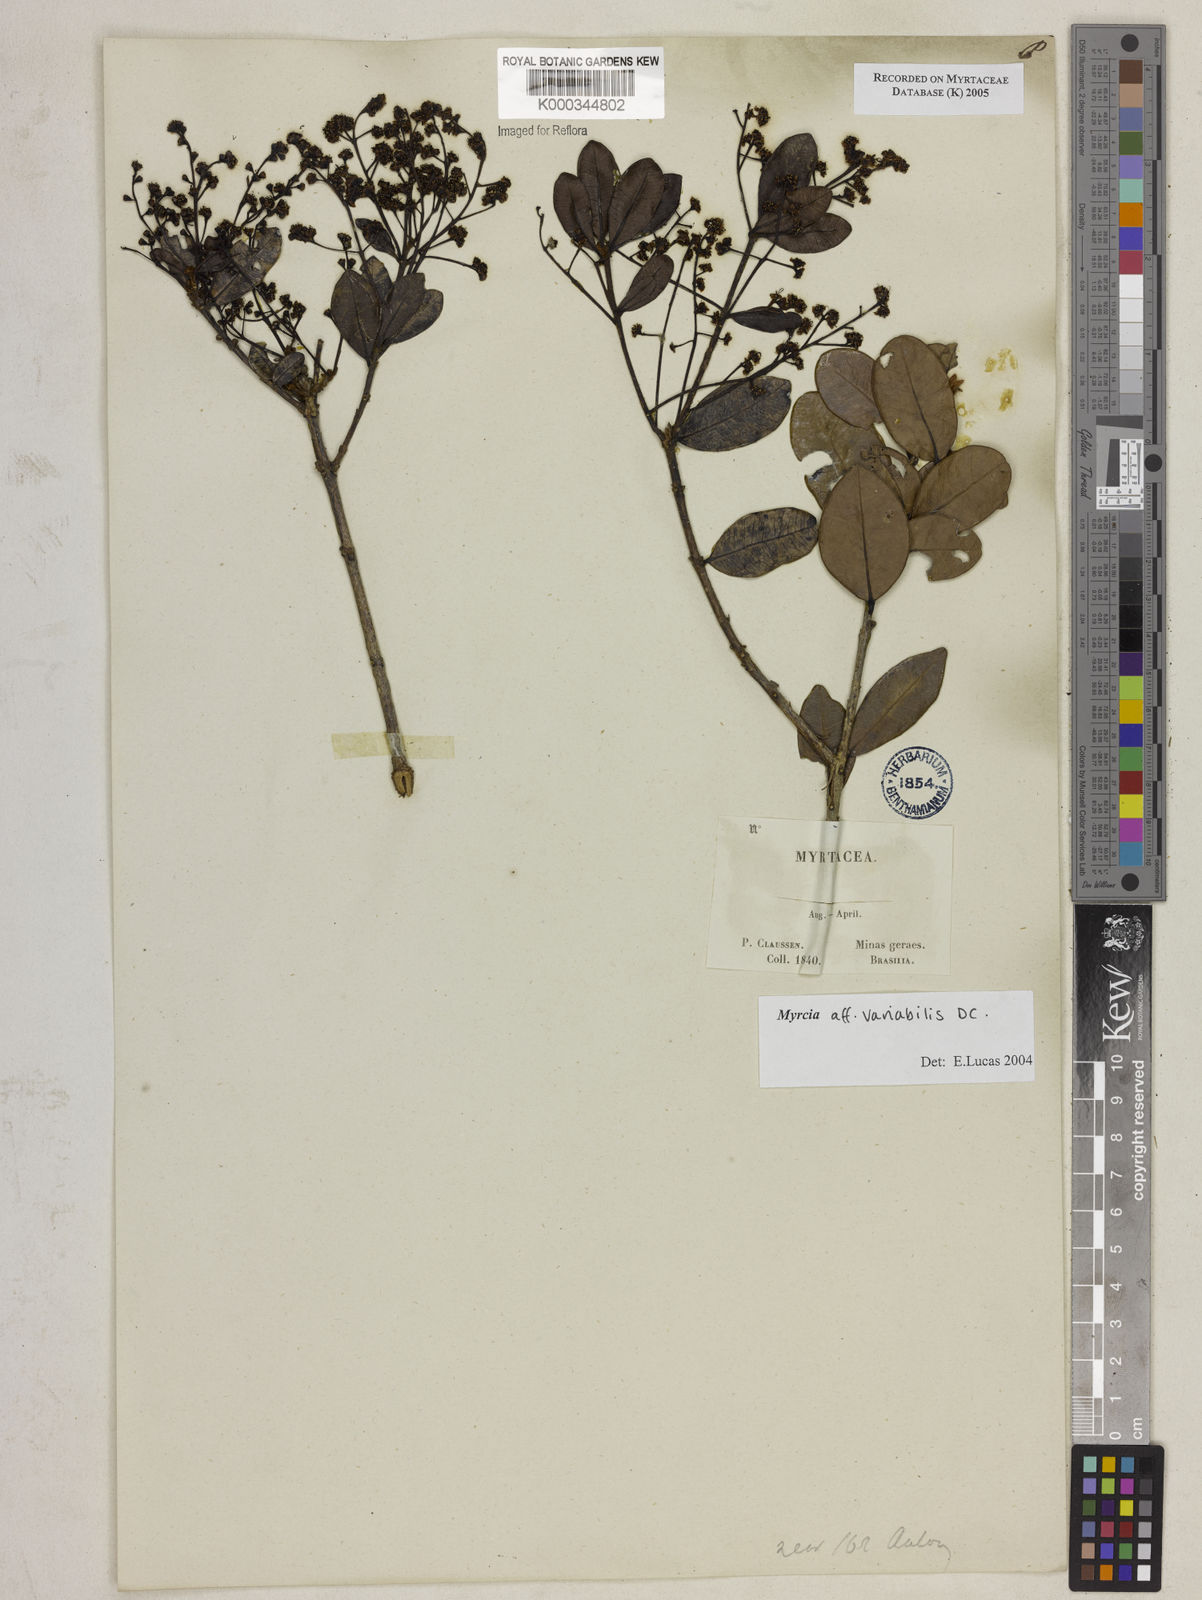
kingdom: Plantae
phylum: Tracheophyta
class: Magnoliopsida
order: Myrtales
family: Myrtaceae
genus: Myrcia
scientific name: Myrcia variabilis
